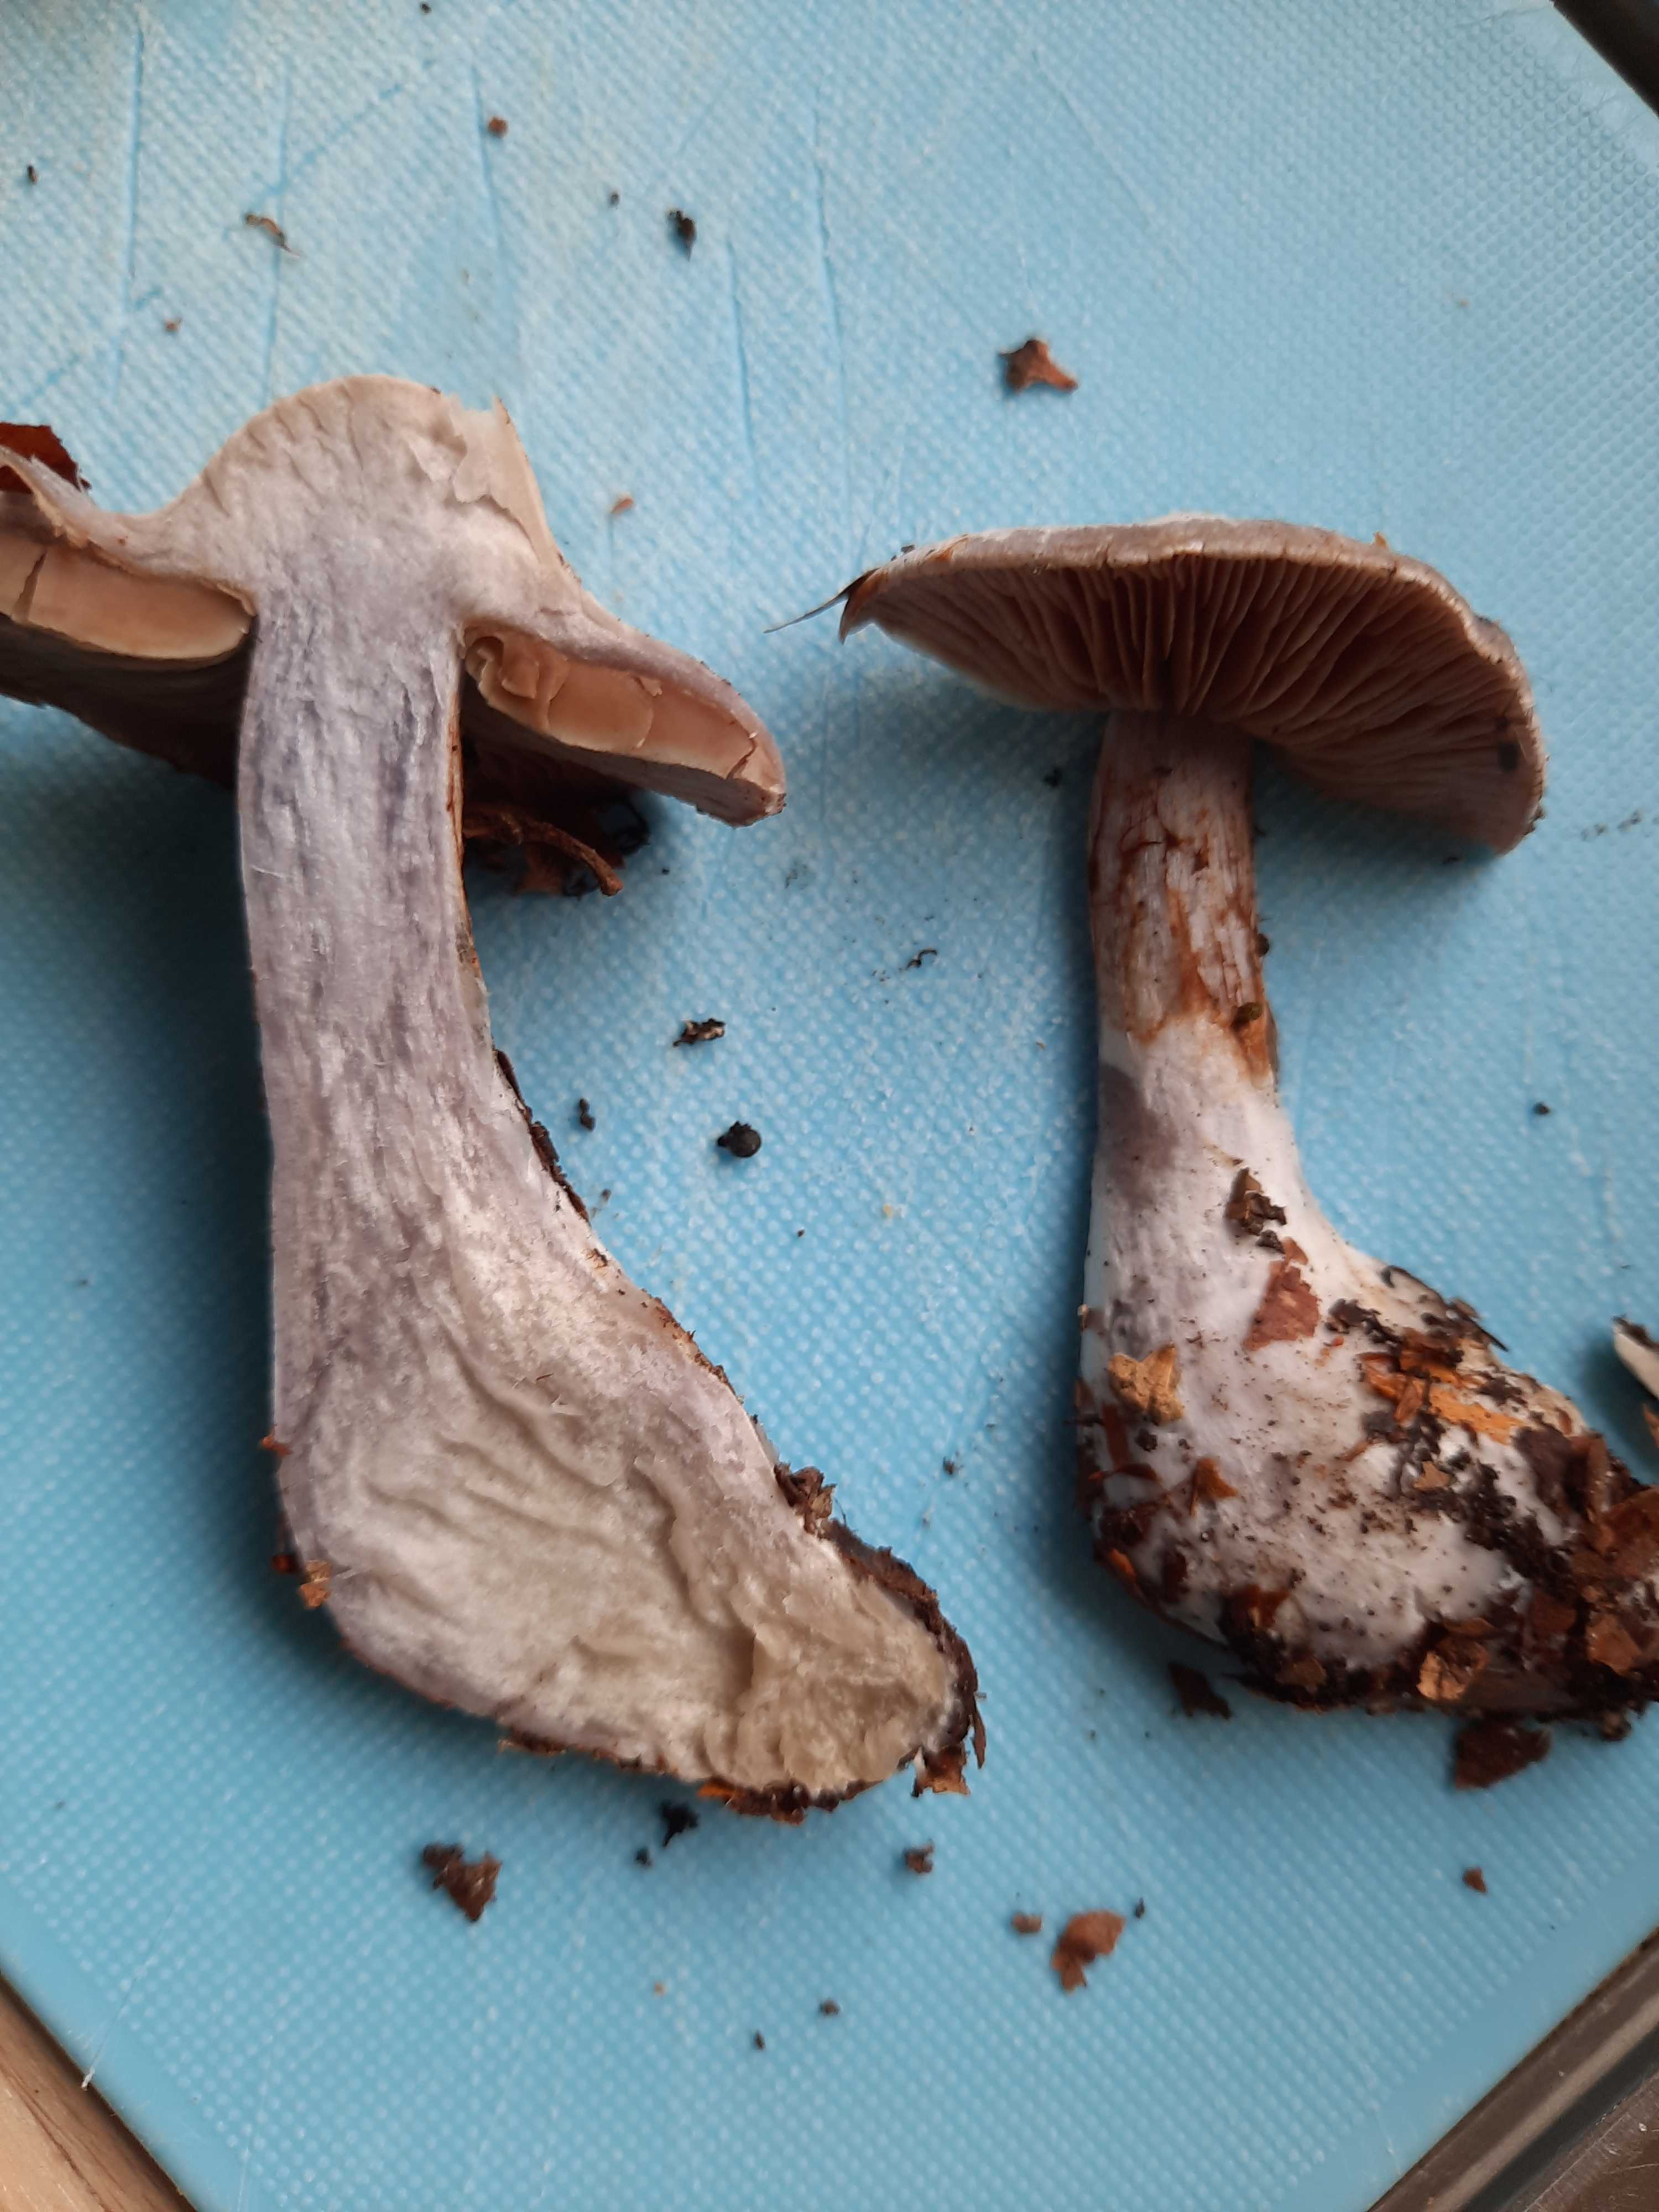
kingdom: Fungi
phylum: Basidiomycota
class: Agaricomycetes
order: Agaricales
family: Cortinariaceae
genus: Cortinarius
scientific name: Cortinarius
